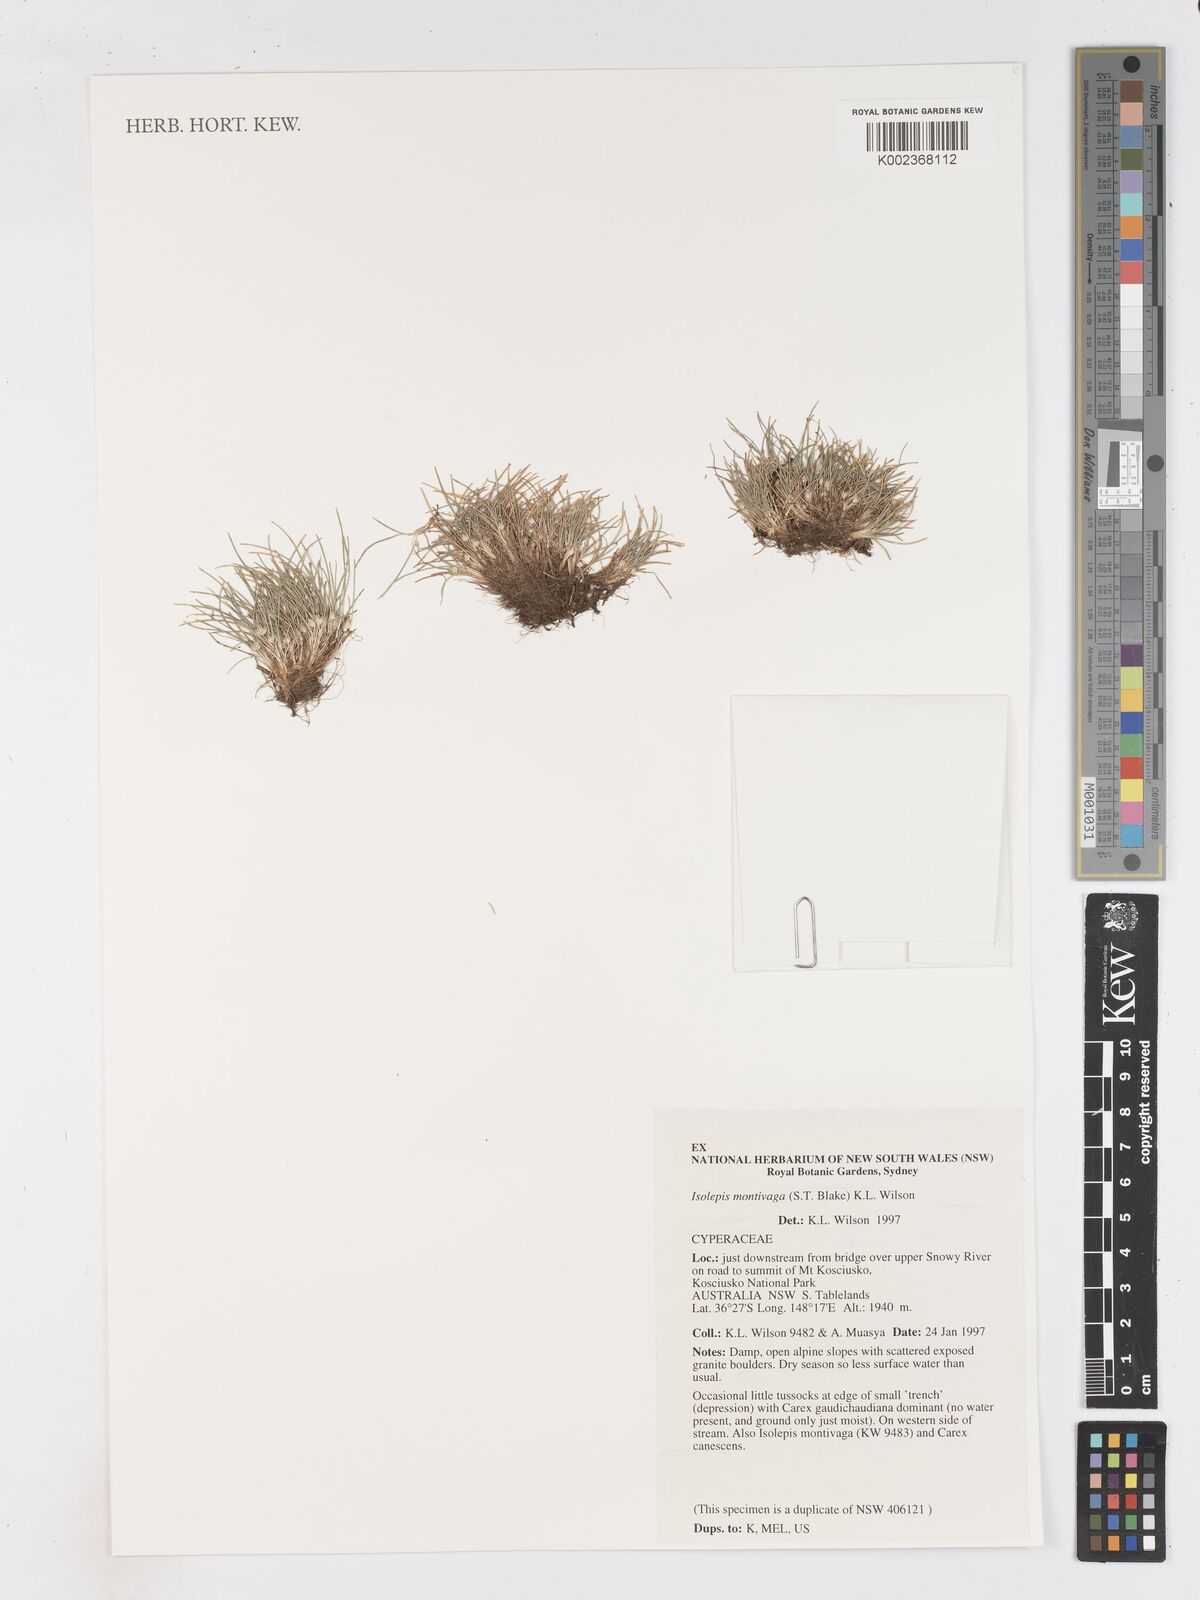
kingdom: Plantae
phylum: Tracheophyta
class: Liliopsida
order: Poales
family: Cyperaceae
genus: Isolepis
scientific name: Isolepis montivaga
